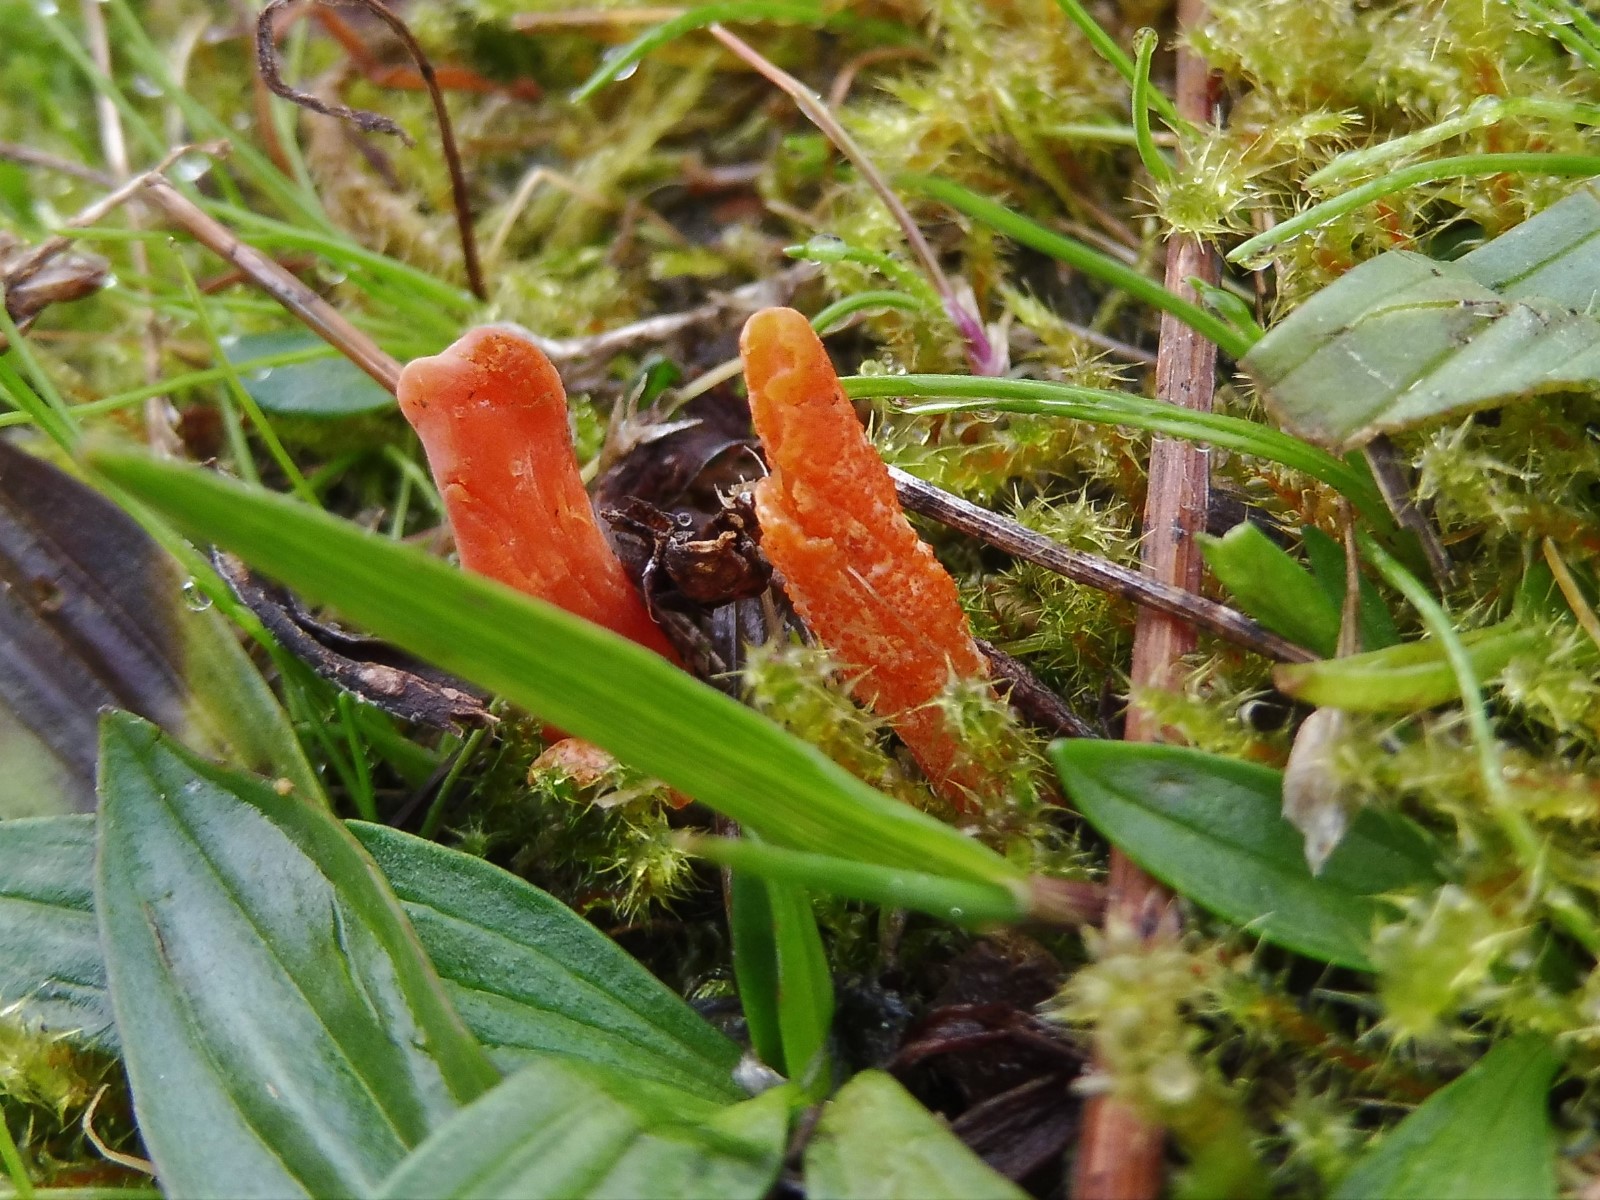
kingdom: Fungi
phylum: Ascomycota
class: Sordariomycetes
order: Hypocreales
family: Cordycipitaceae
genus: Cordyceps
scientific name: Cordyceps militaris
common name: puppe-snyltekølle
